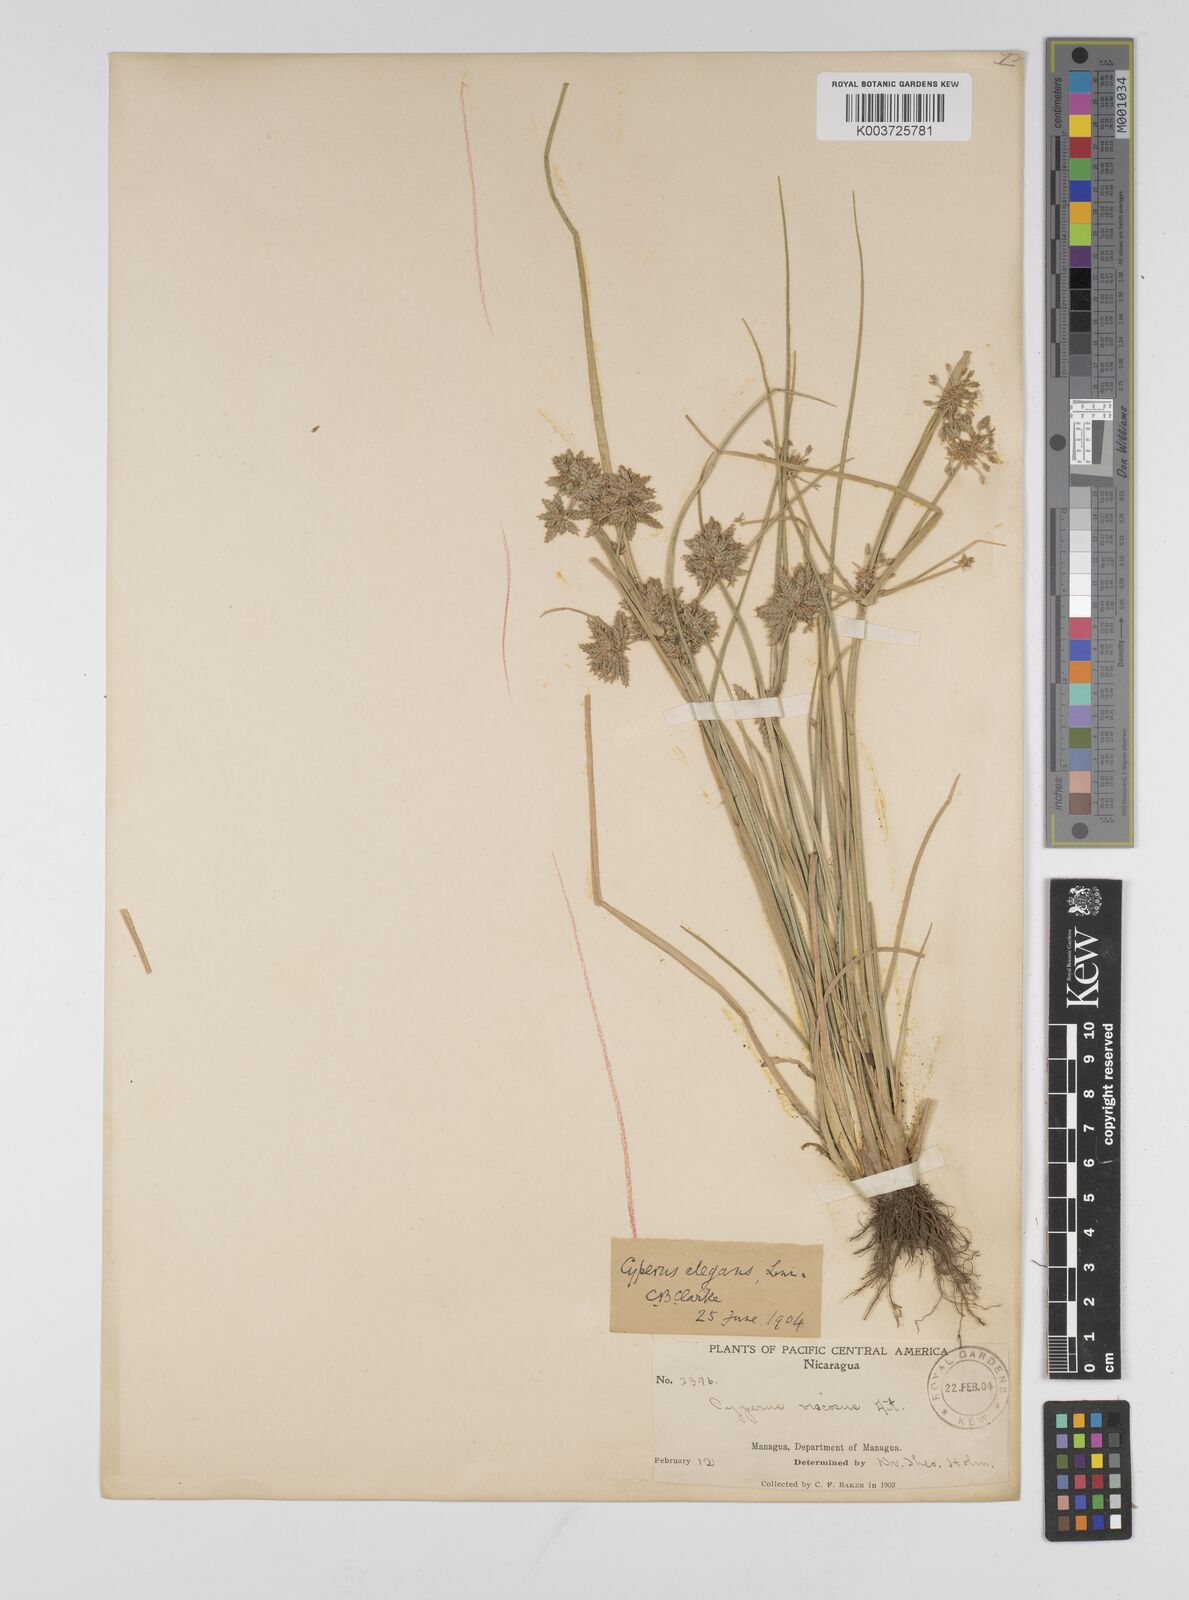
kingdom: Plantae
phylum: Tracheophyta
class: Liliopsida
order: Poales
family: Cyperaceae
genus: Cyperus
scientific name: Cyperus elegans
